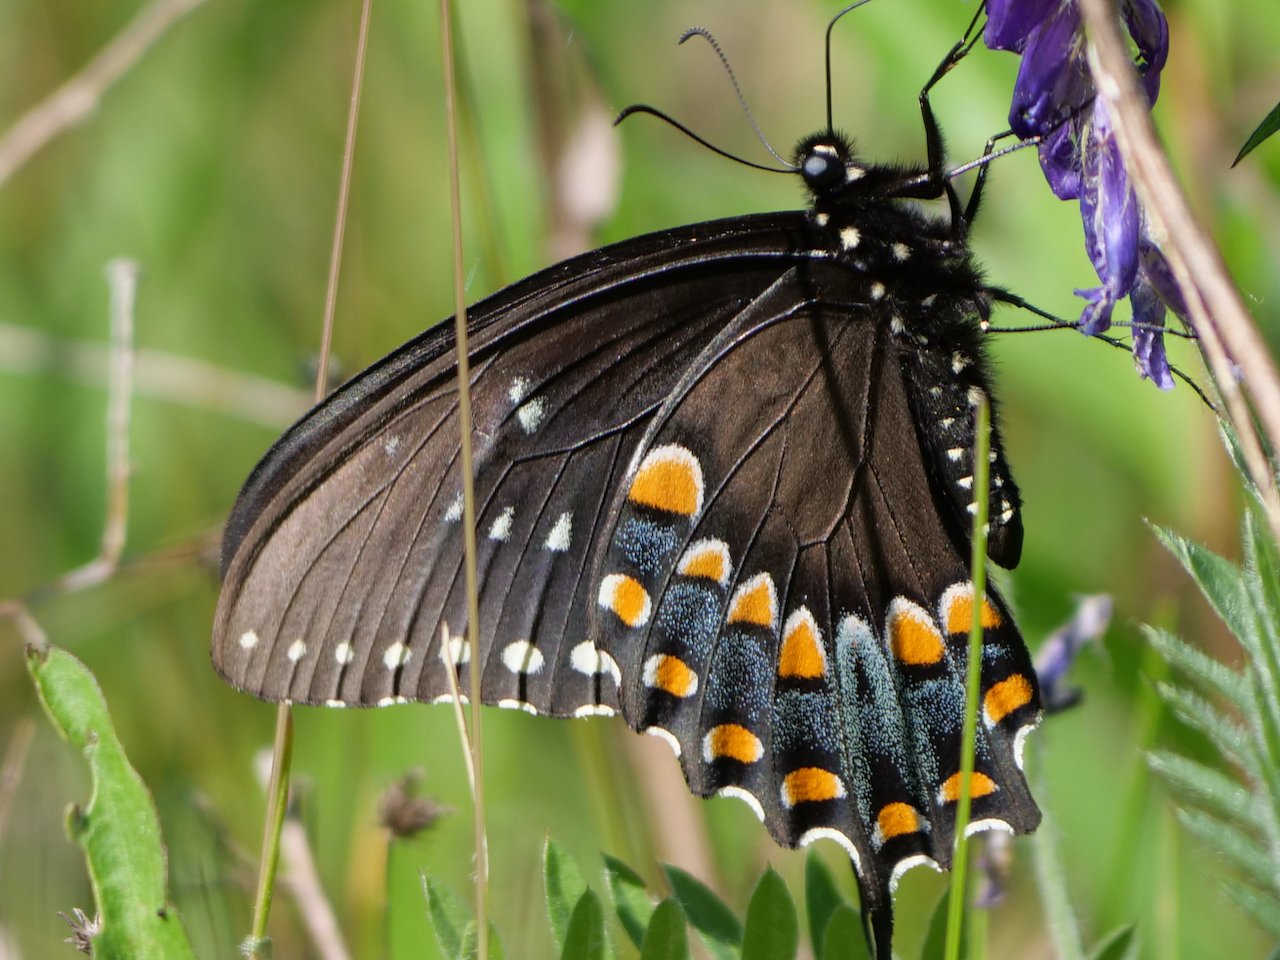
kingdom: Animalia
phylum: Arthropoda
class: Insecta
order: Lepidoptera
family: Papilionidae
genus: Pterourus
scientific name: Pterourus troilus
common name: Spicebush Swallowtail
